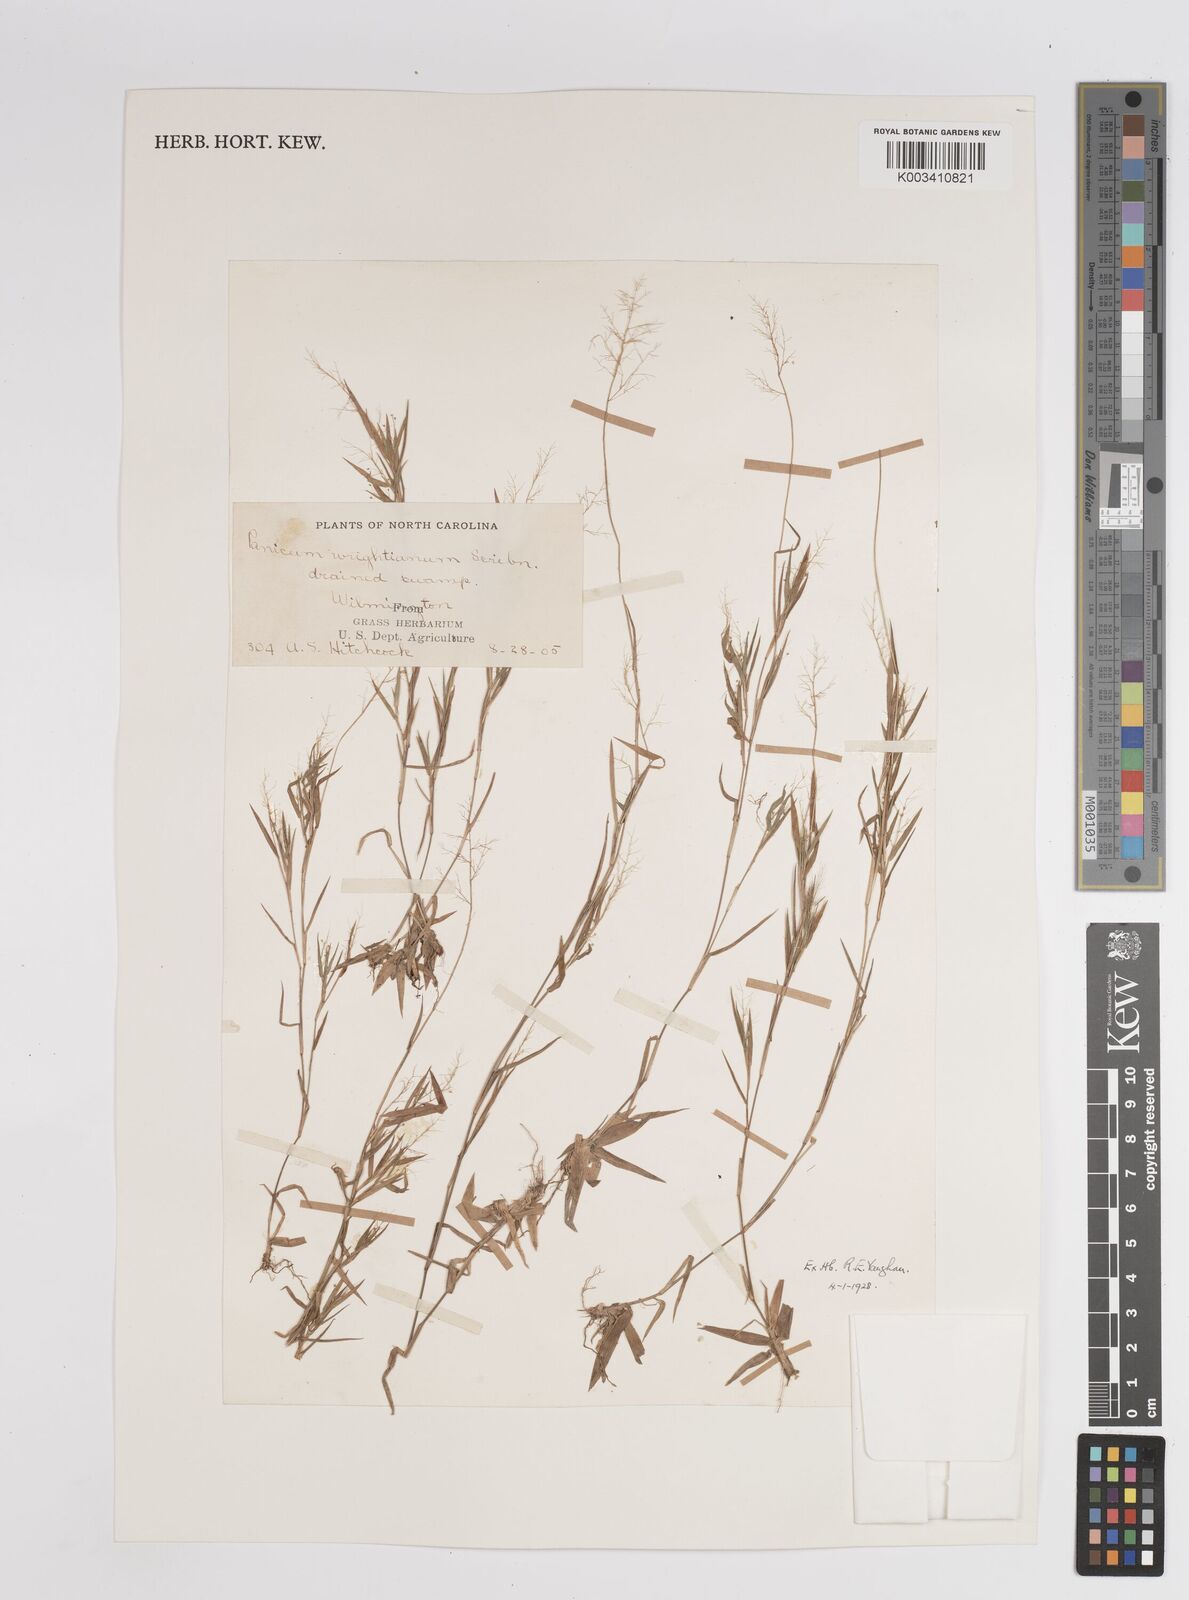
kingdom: Plantae
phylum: Tracheophyta
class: Liliopsida
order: Poales
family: Poaceae
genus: Dichanthelium
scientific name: Dichanthelium implicatum
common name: Slender-stemmed panicgrass
